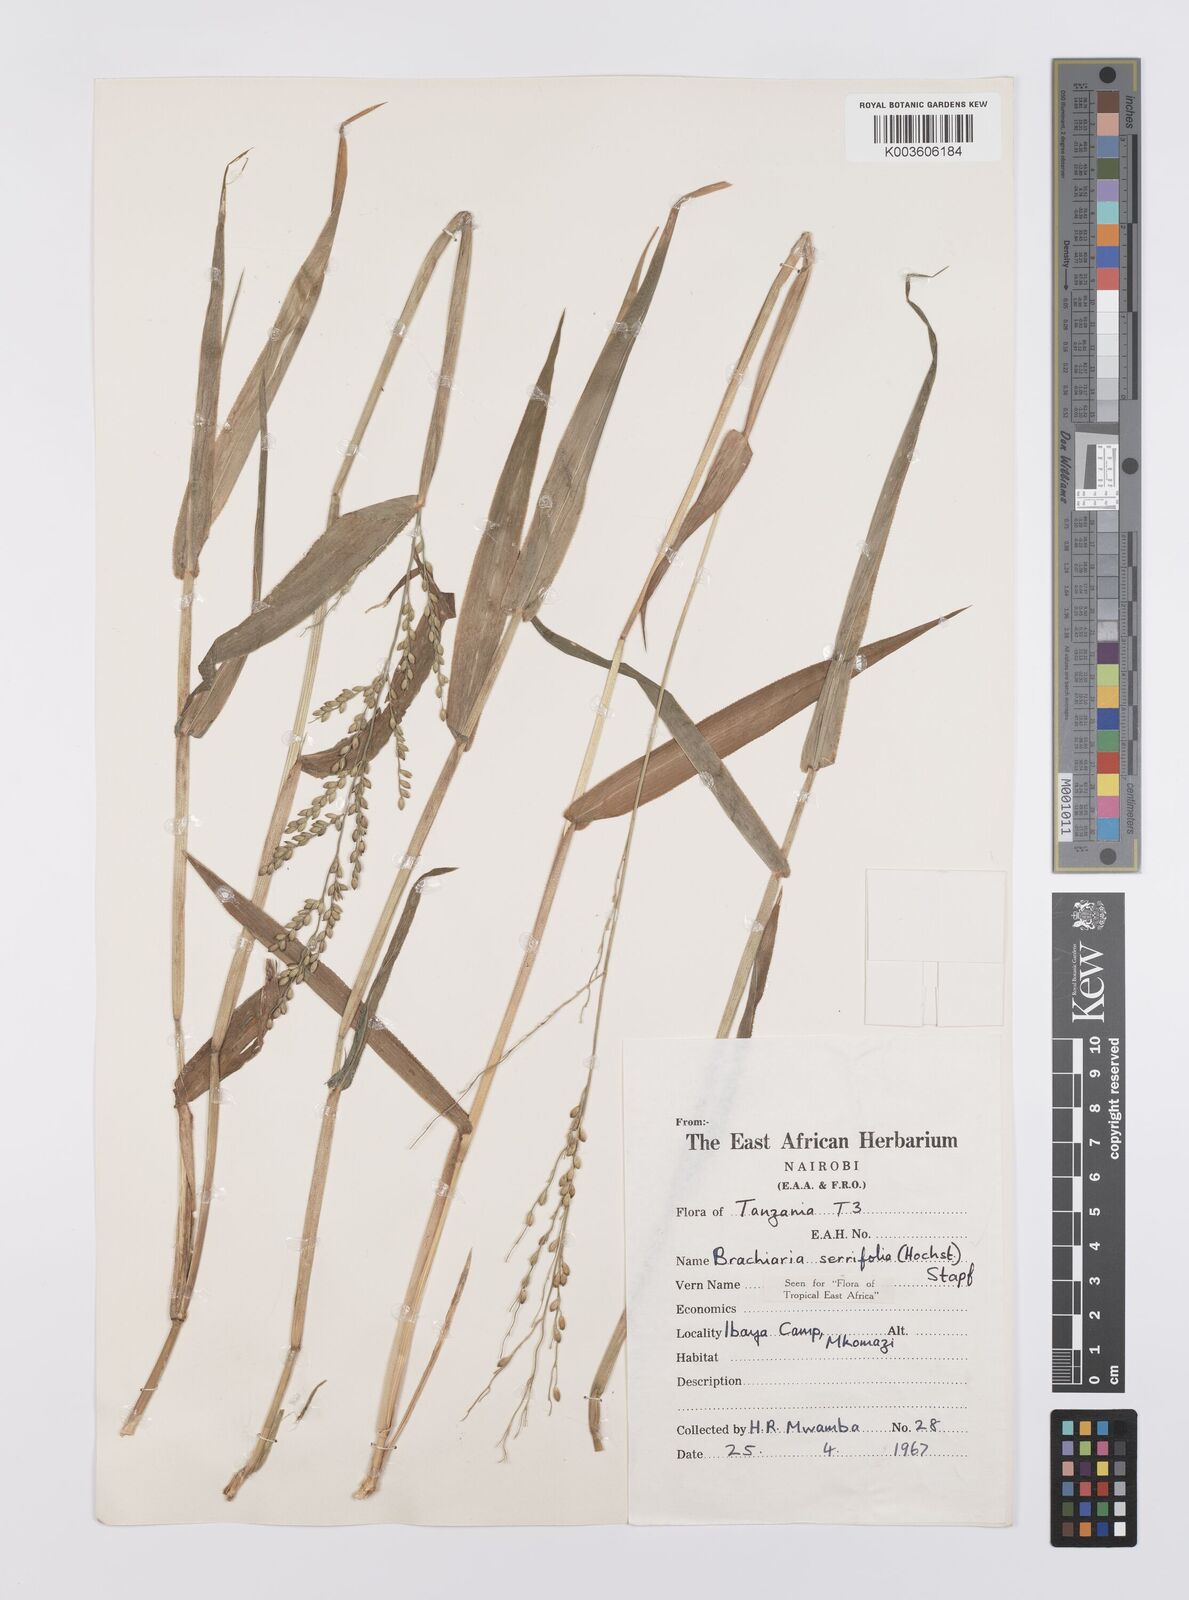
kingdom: Plantae
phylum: Tracheophyta
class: Liliopsida
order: Poales
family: Poaceae
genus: Urochloa
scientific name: Urochloa serrifolia
